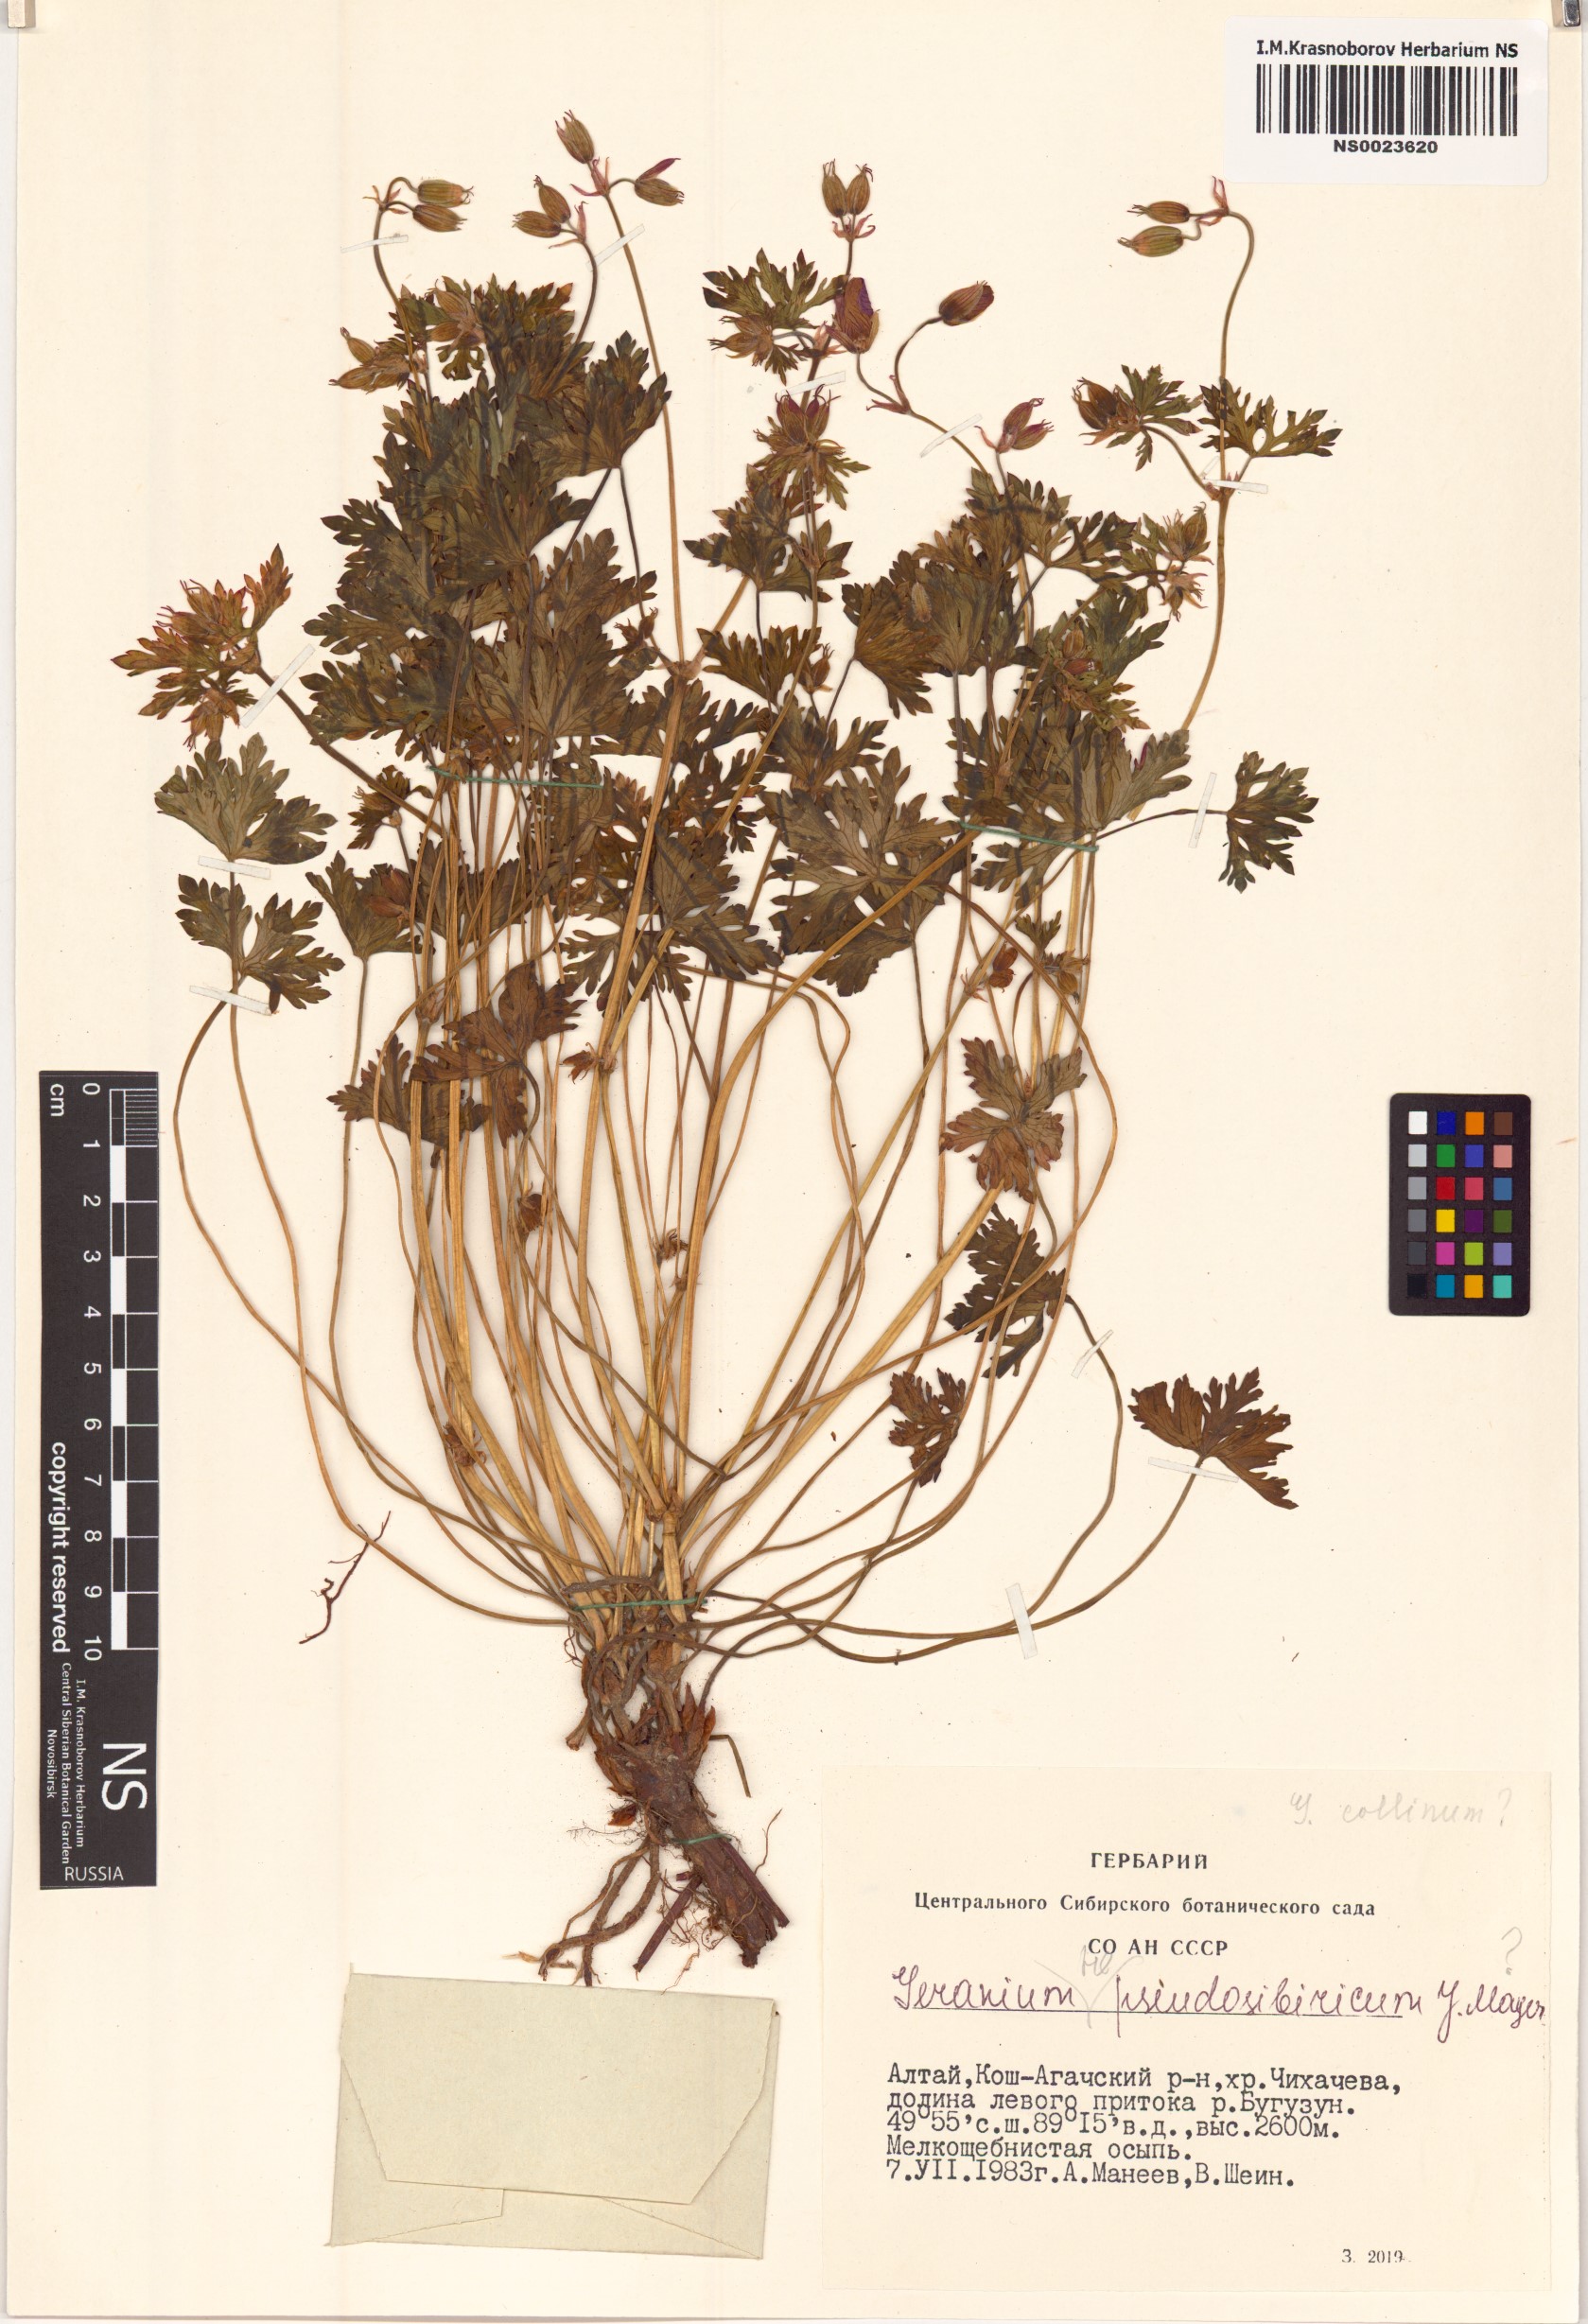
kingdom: Plantae
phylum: Tracheophyta
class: Magnoliopsida
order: Geraniales
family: Geraniaceae
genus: Geranium
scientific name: Geranium collinum
